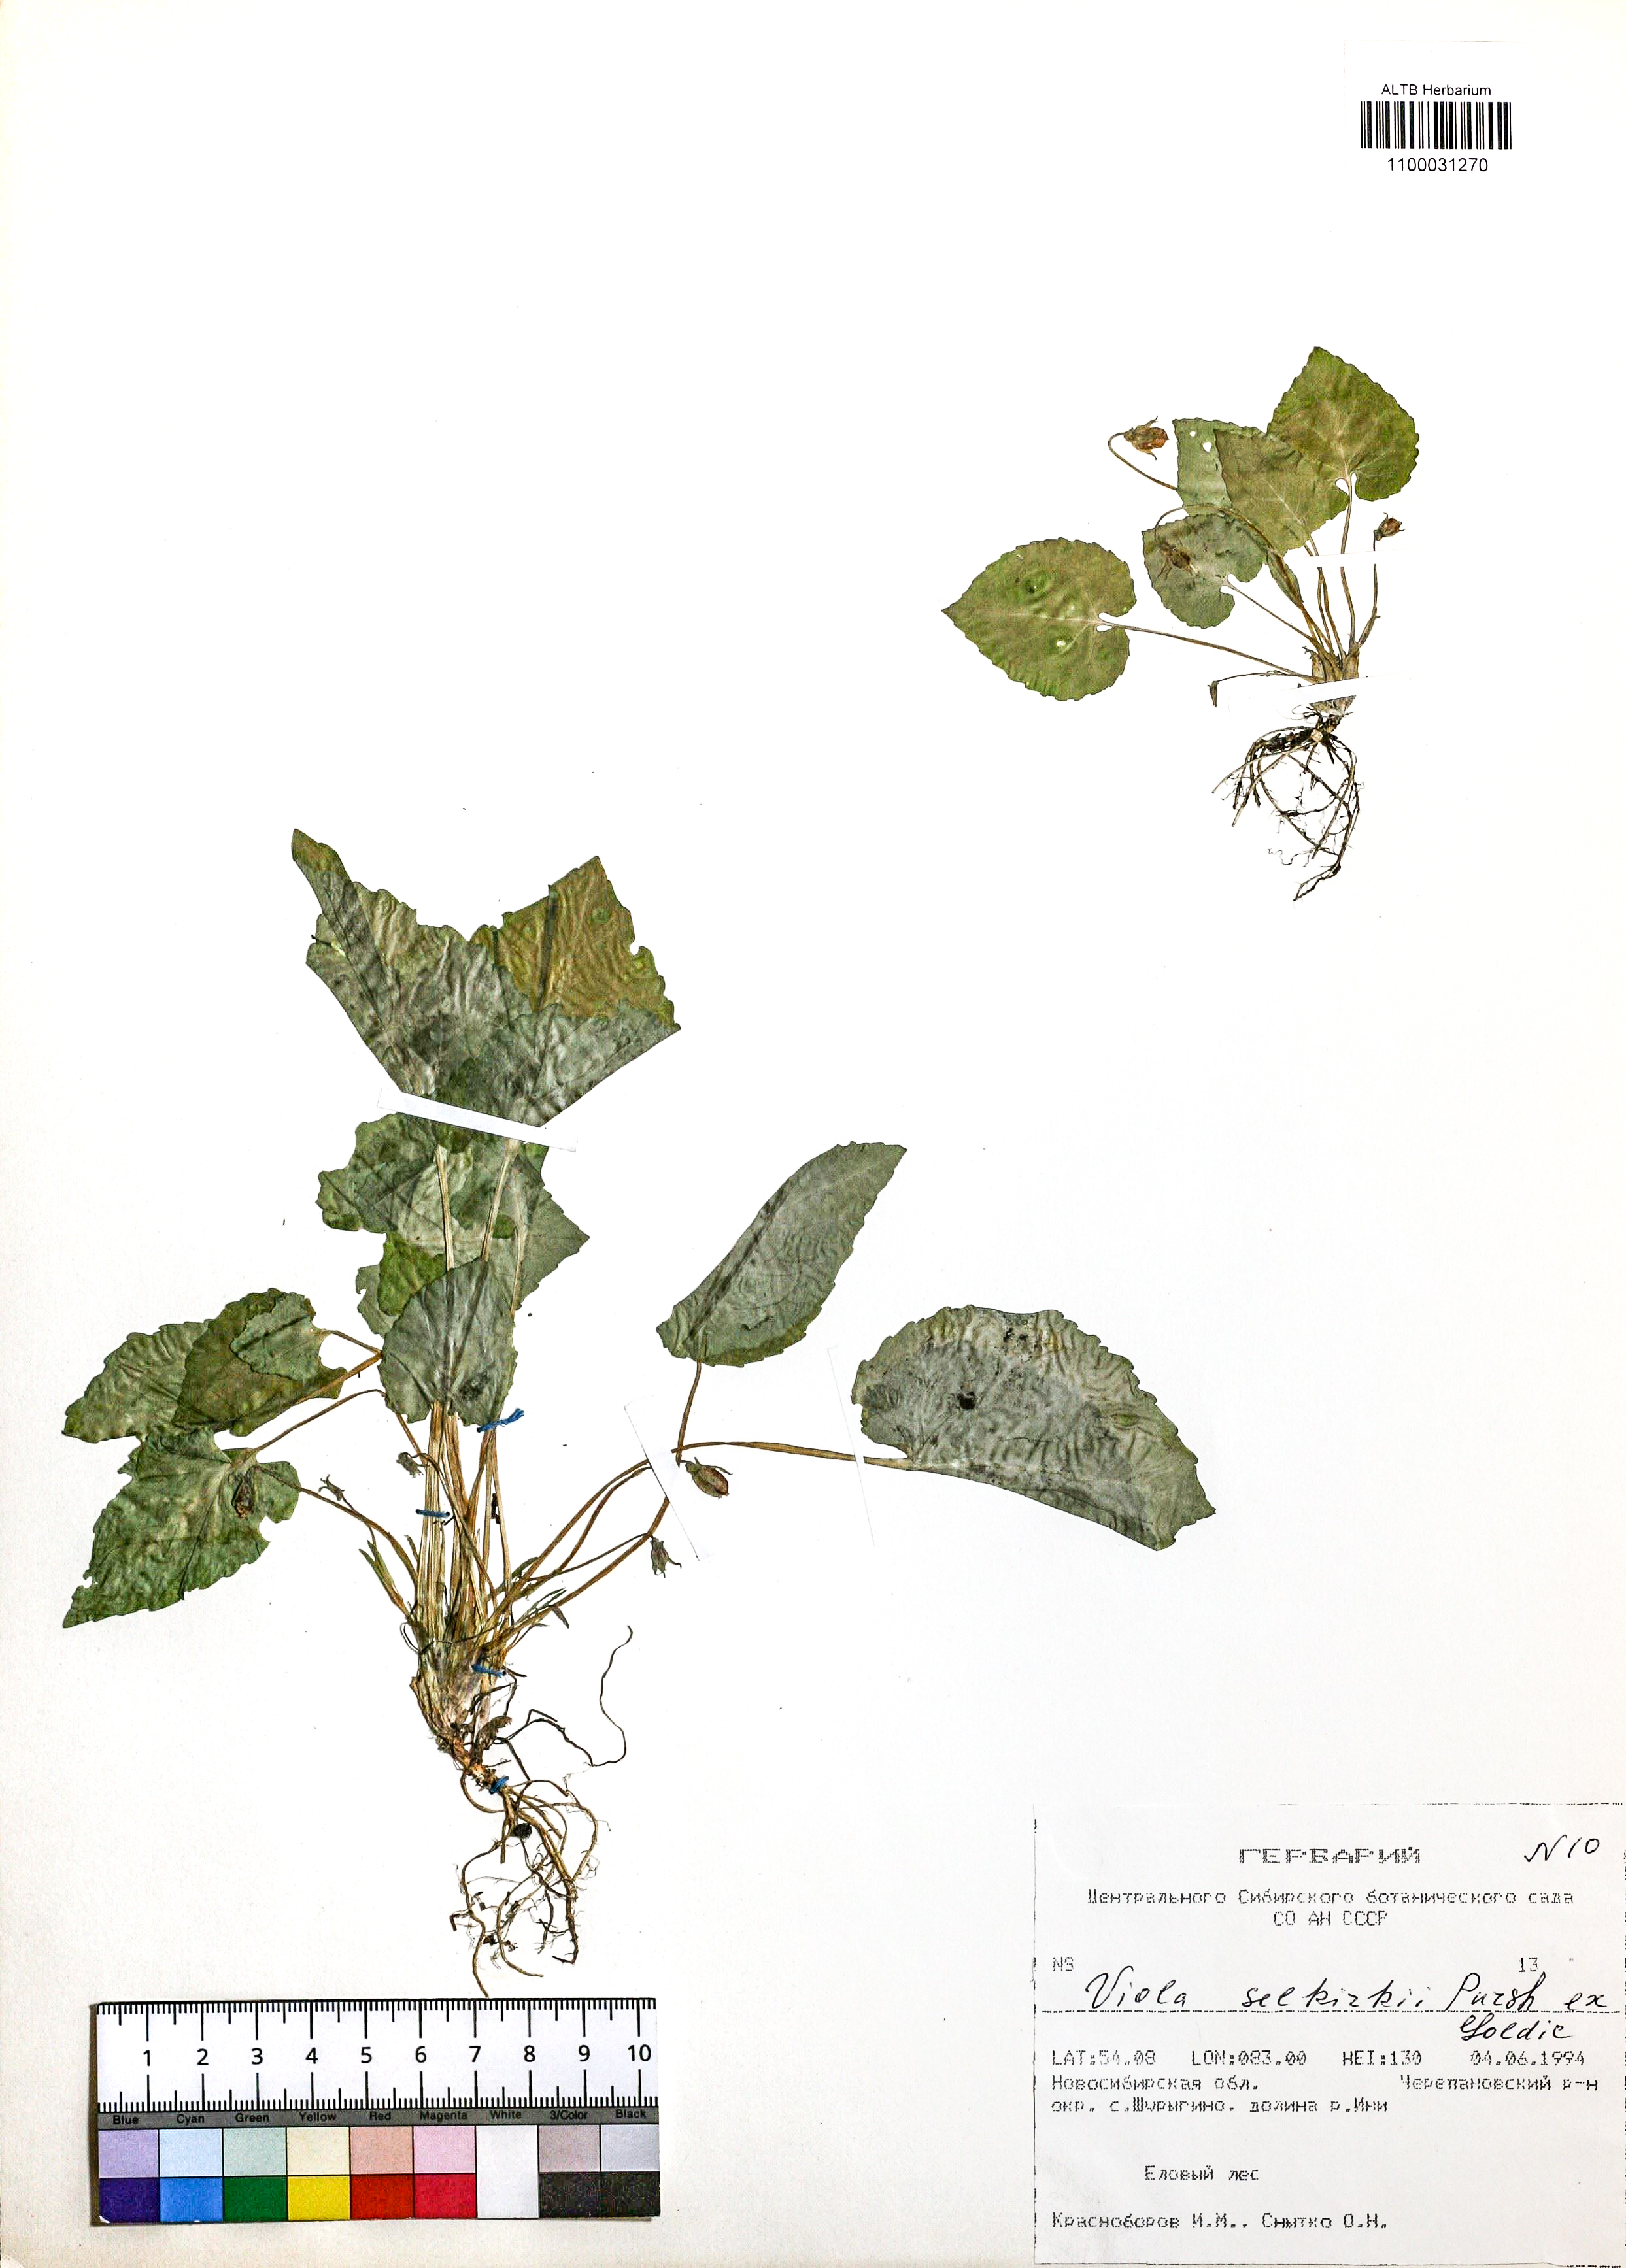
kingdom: Plantae
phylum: Tracheophyta
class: Magnoliopsida
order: Malpighiales
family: Violaceae
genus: Viola
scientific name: Viola selkirkii
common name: Selkirk's violet
